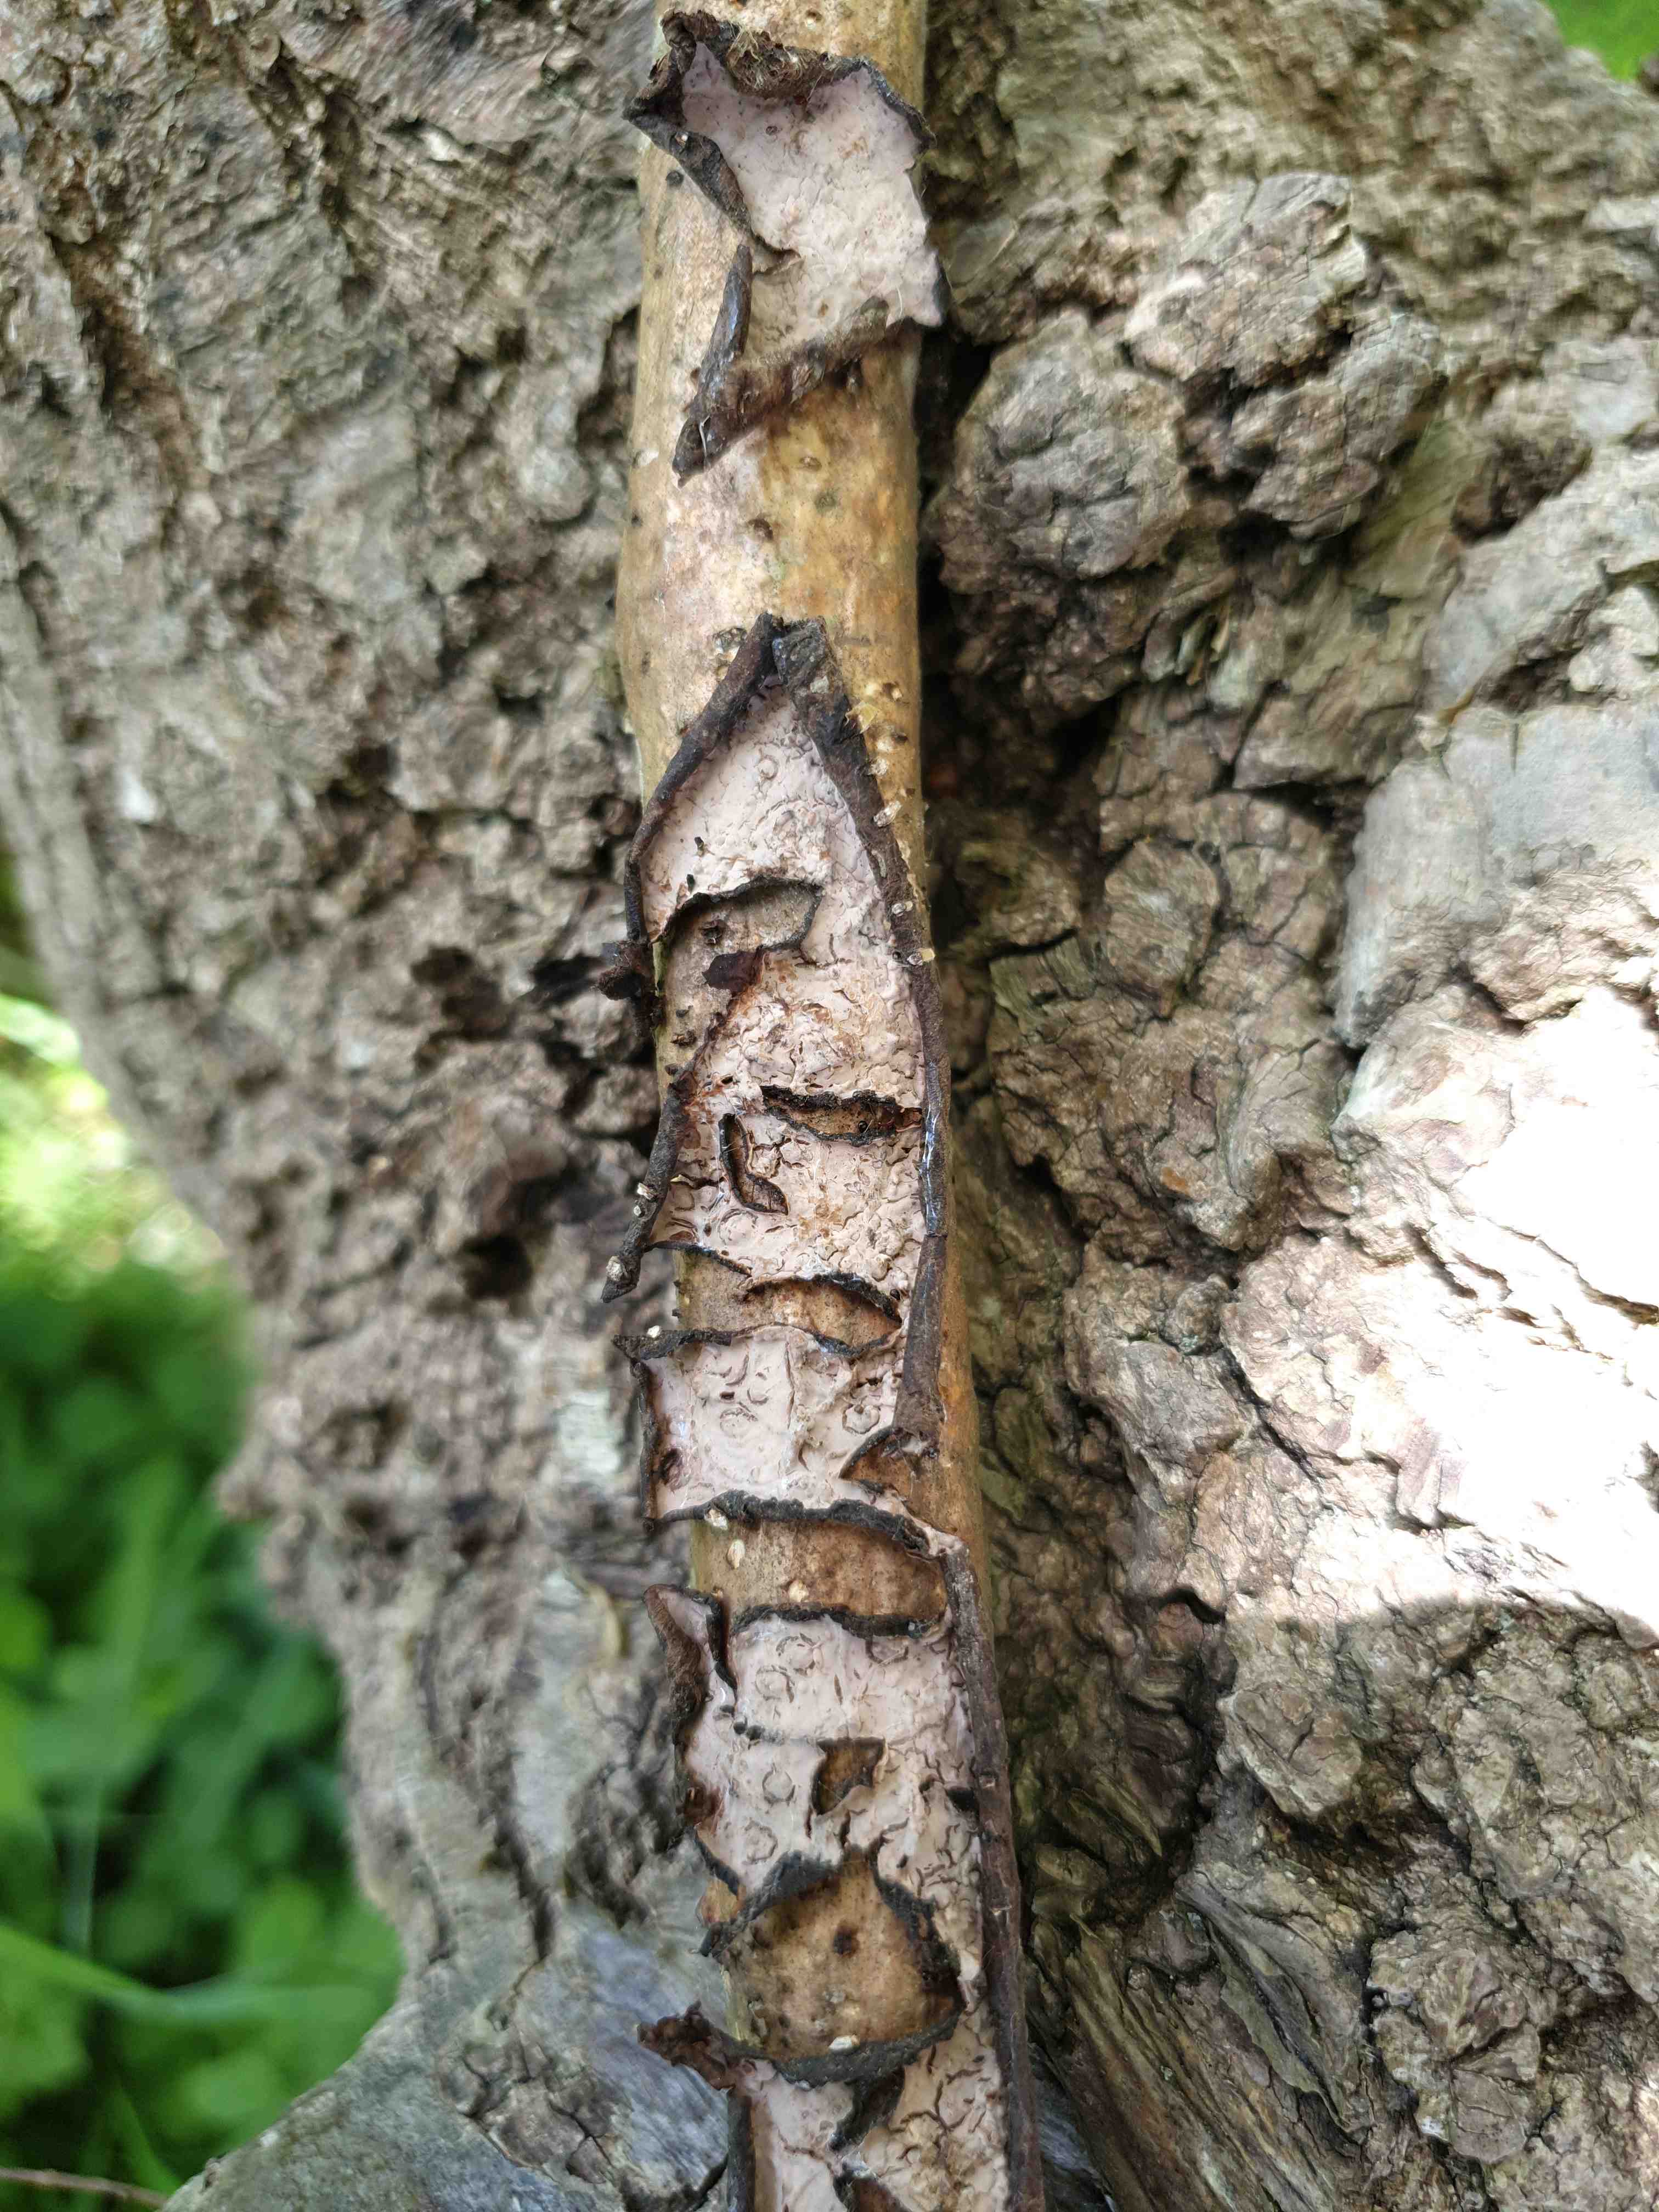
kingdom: Fungi
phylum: Basidiomycota
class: Agaricomycetes
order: Russulales
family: Peniophoraceae
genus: Peniophora
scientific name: Peniophora quercina
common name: ege-voksskind
